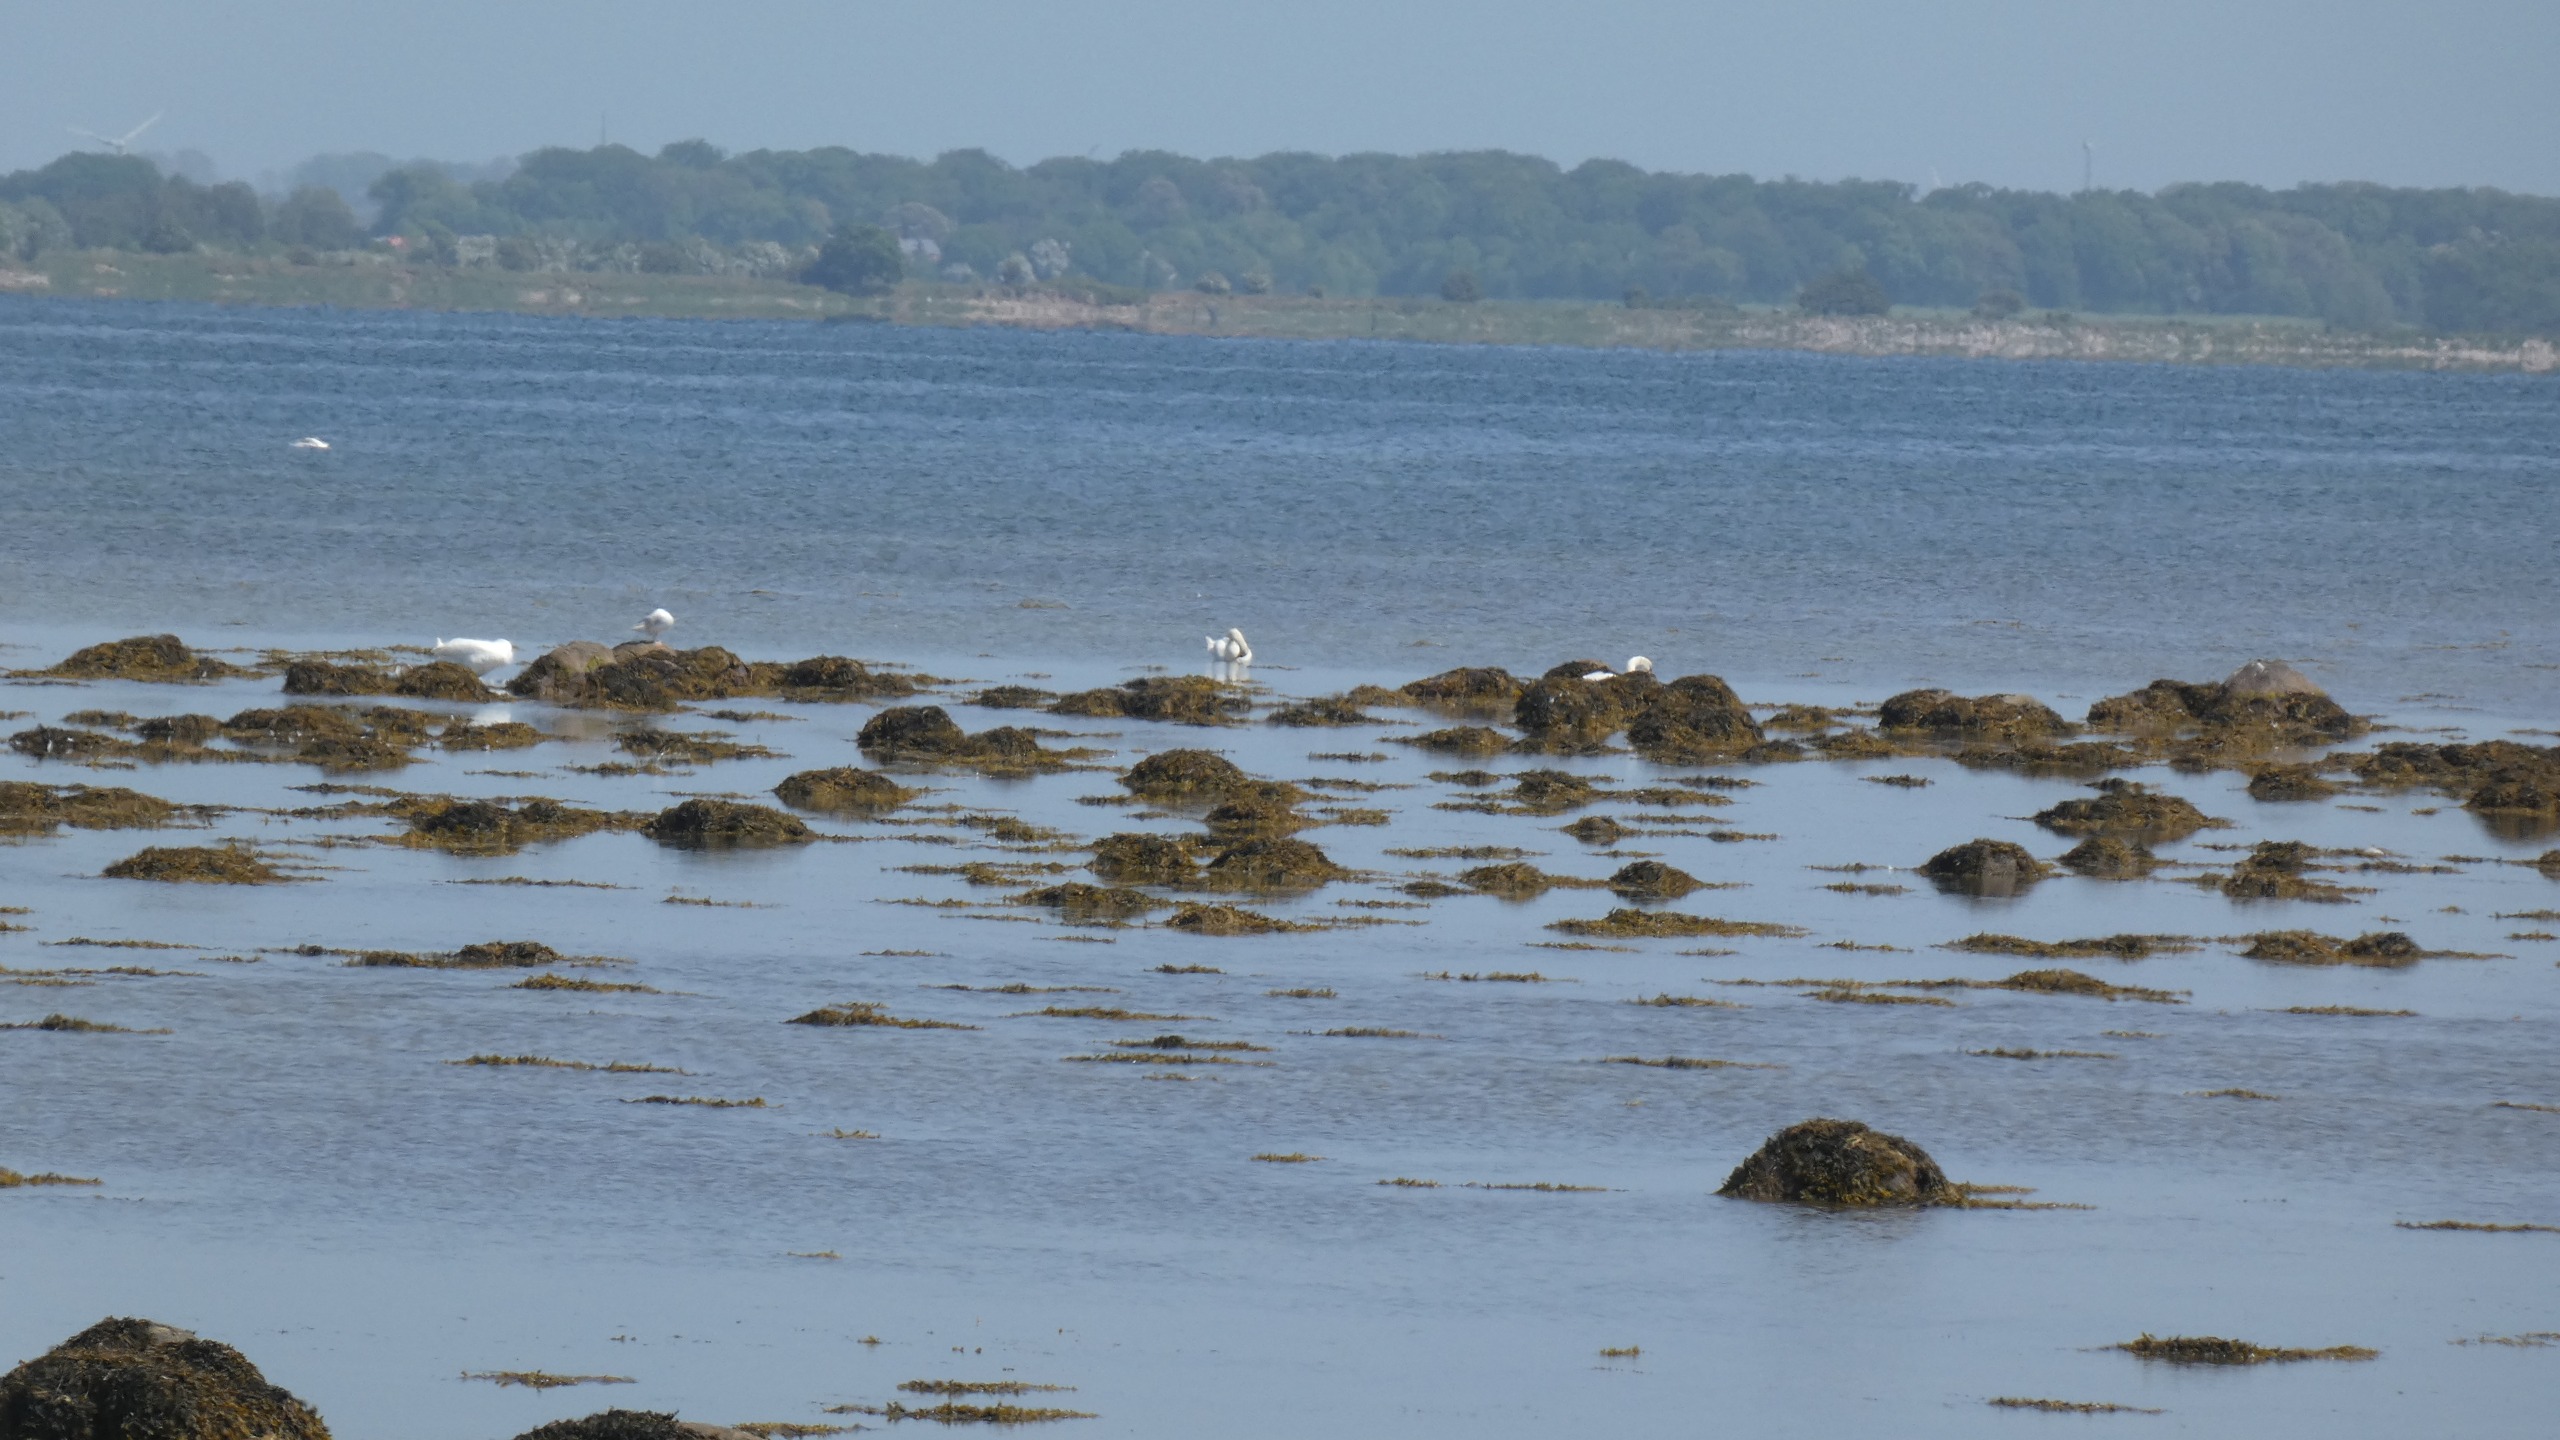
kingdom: Animalia
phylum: Chordata
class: Aves
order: Anseriformes
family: Anatidae
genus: Cygnus
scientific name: Cygnus olor
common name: Knopsvane
